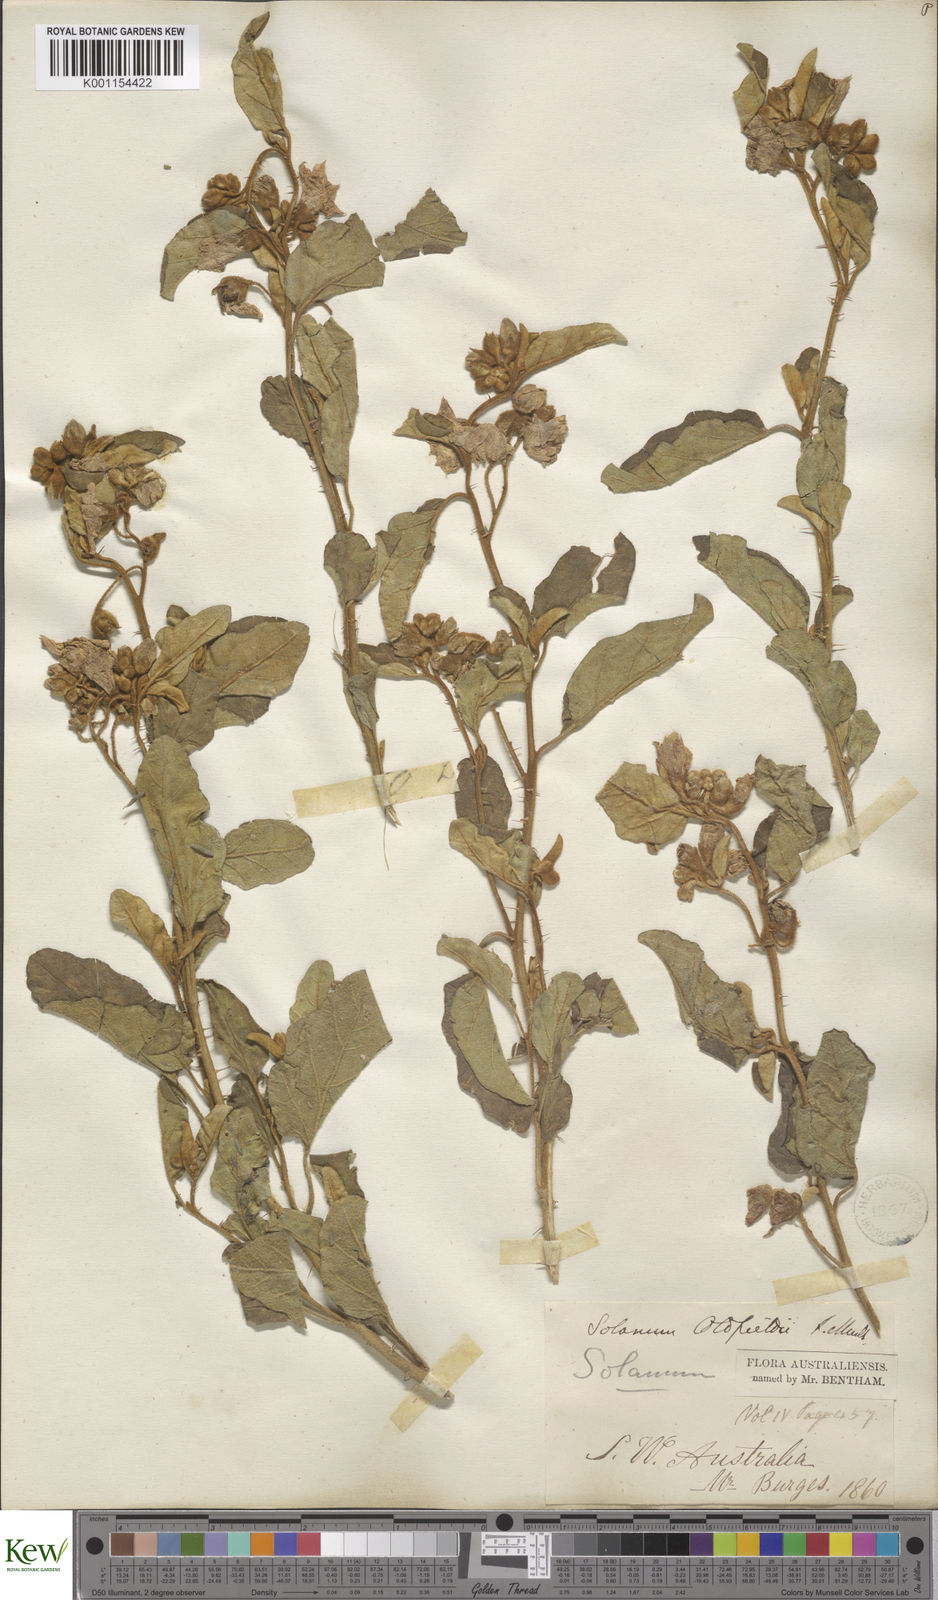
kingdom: Plantae
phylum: Tracheophyta
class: Magnoliopsida
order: Solanales
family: Solanaceae
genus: Solanum
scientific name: Solanum oldfieldii
